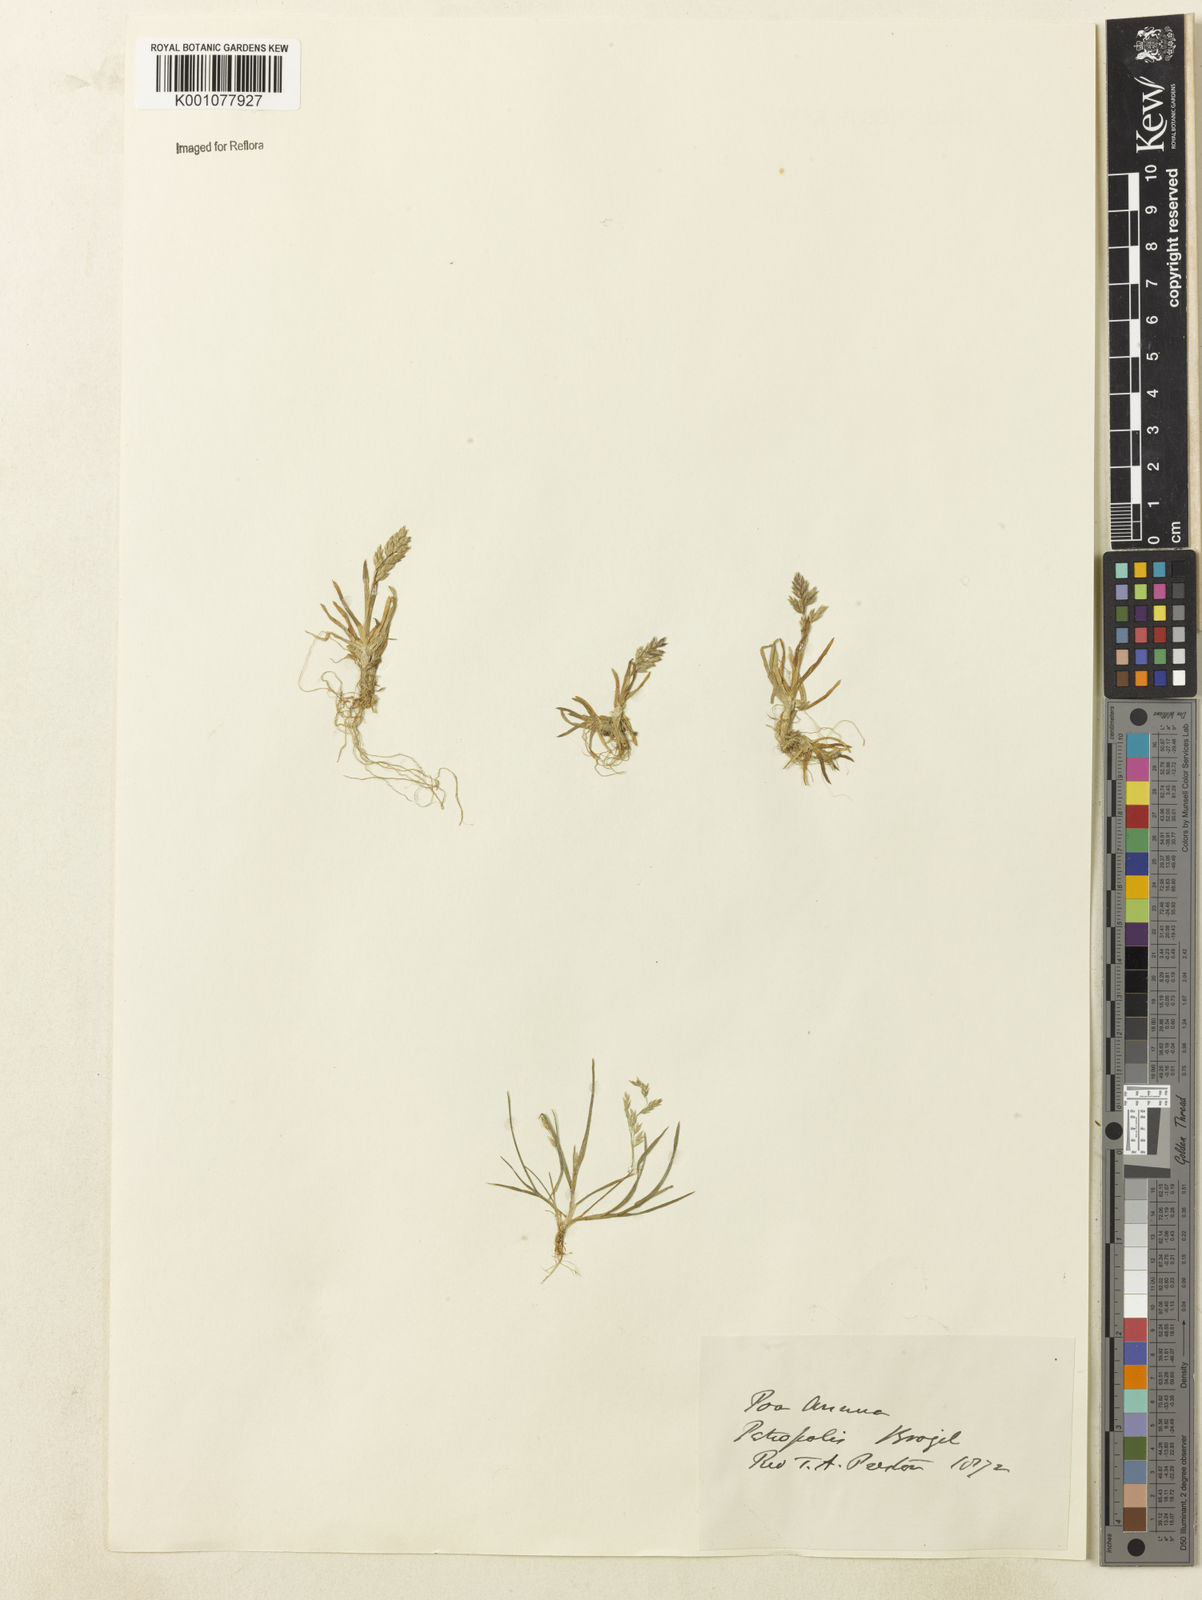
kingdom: Plantae
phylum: Tracheophyta
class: Liliopsida
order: Poales
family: Poaceae
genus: Poa
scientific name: Poa annua
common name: Annual bluegrass
